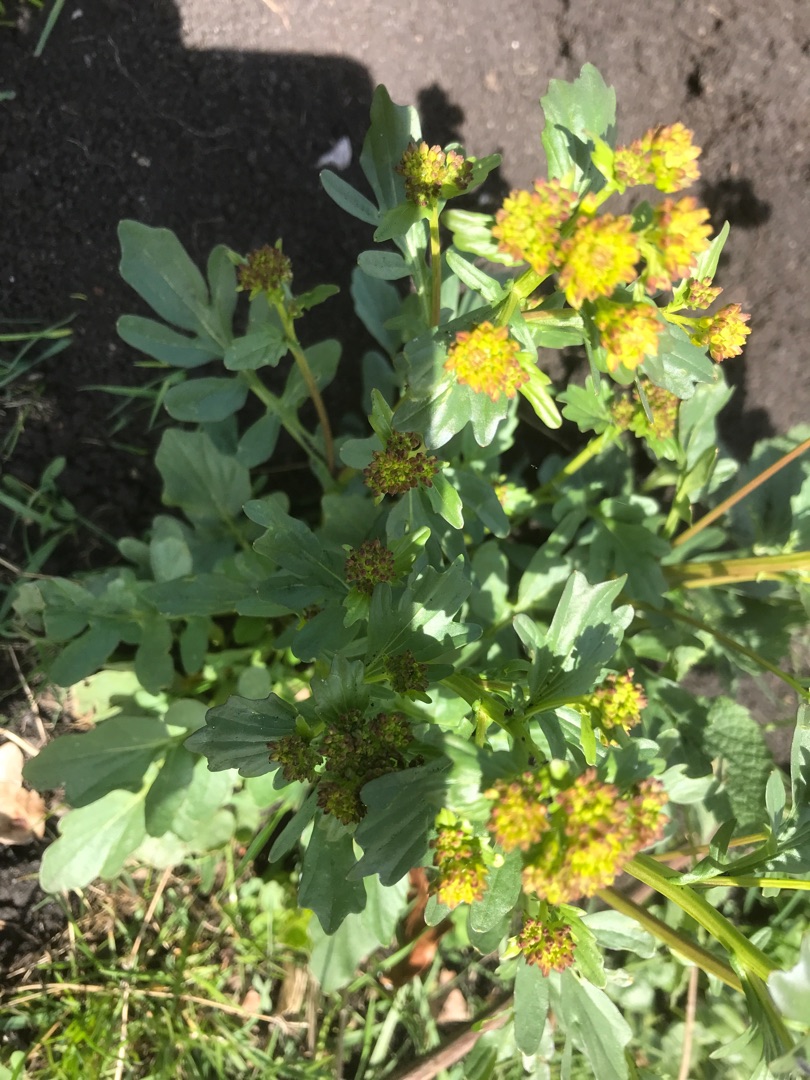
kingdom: Plantae
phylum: Tracheophyta
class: Magnoliopsida
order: Brassicales
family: Brassicaceae
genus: Barbarea
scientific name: Barbarea vulgaris
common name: Almindelig vinterkarse
